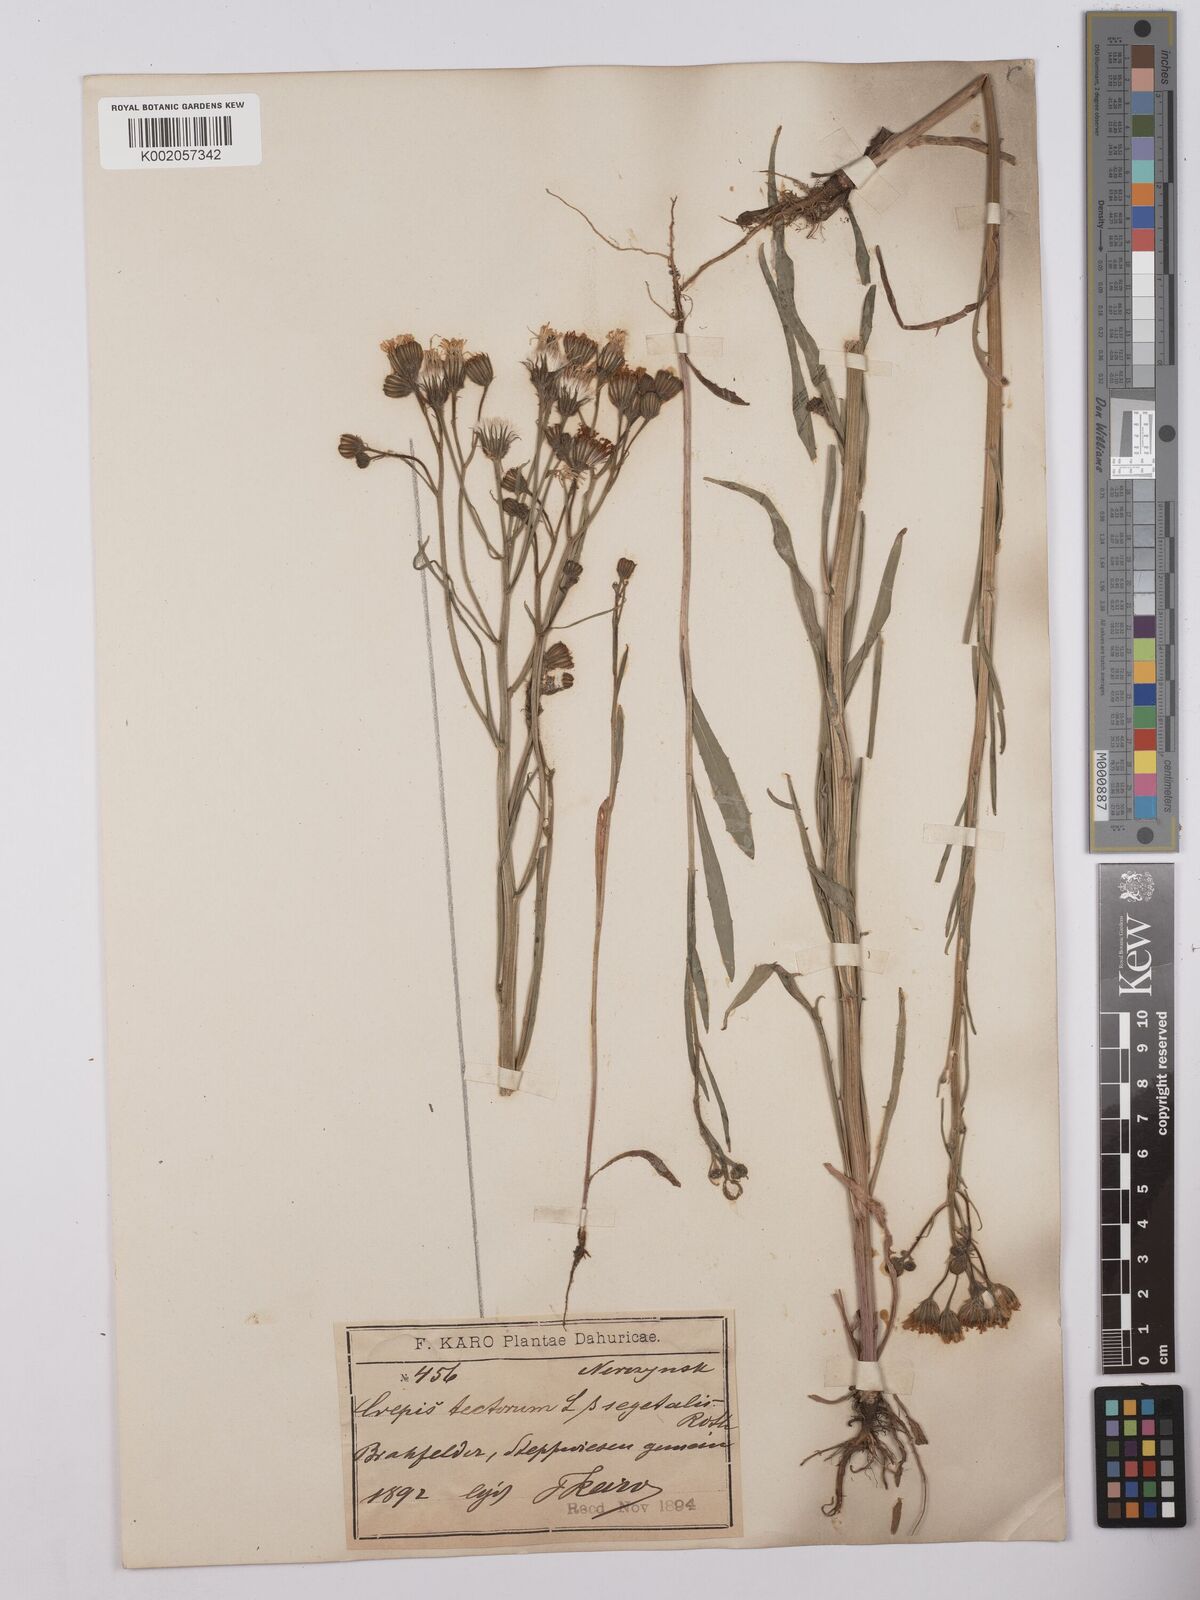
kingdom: Plantae
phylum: Tracheophyta
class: Magnoliopsida
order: Asterales
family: Asteraceae
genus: Crepis
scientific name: Crepis tectorum
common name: Narrow-leaved hawk's-beard
